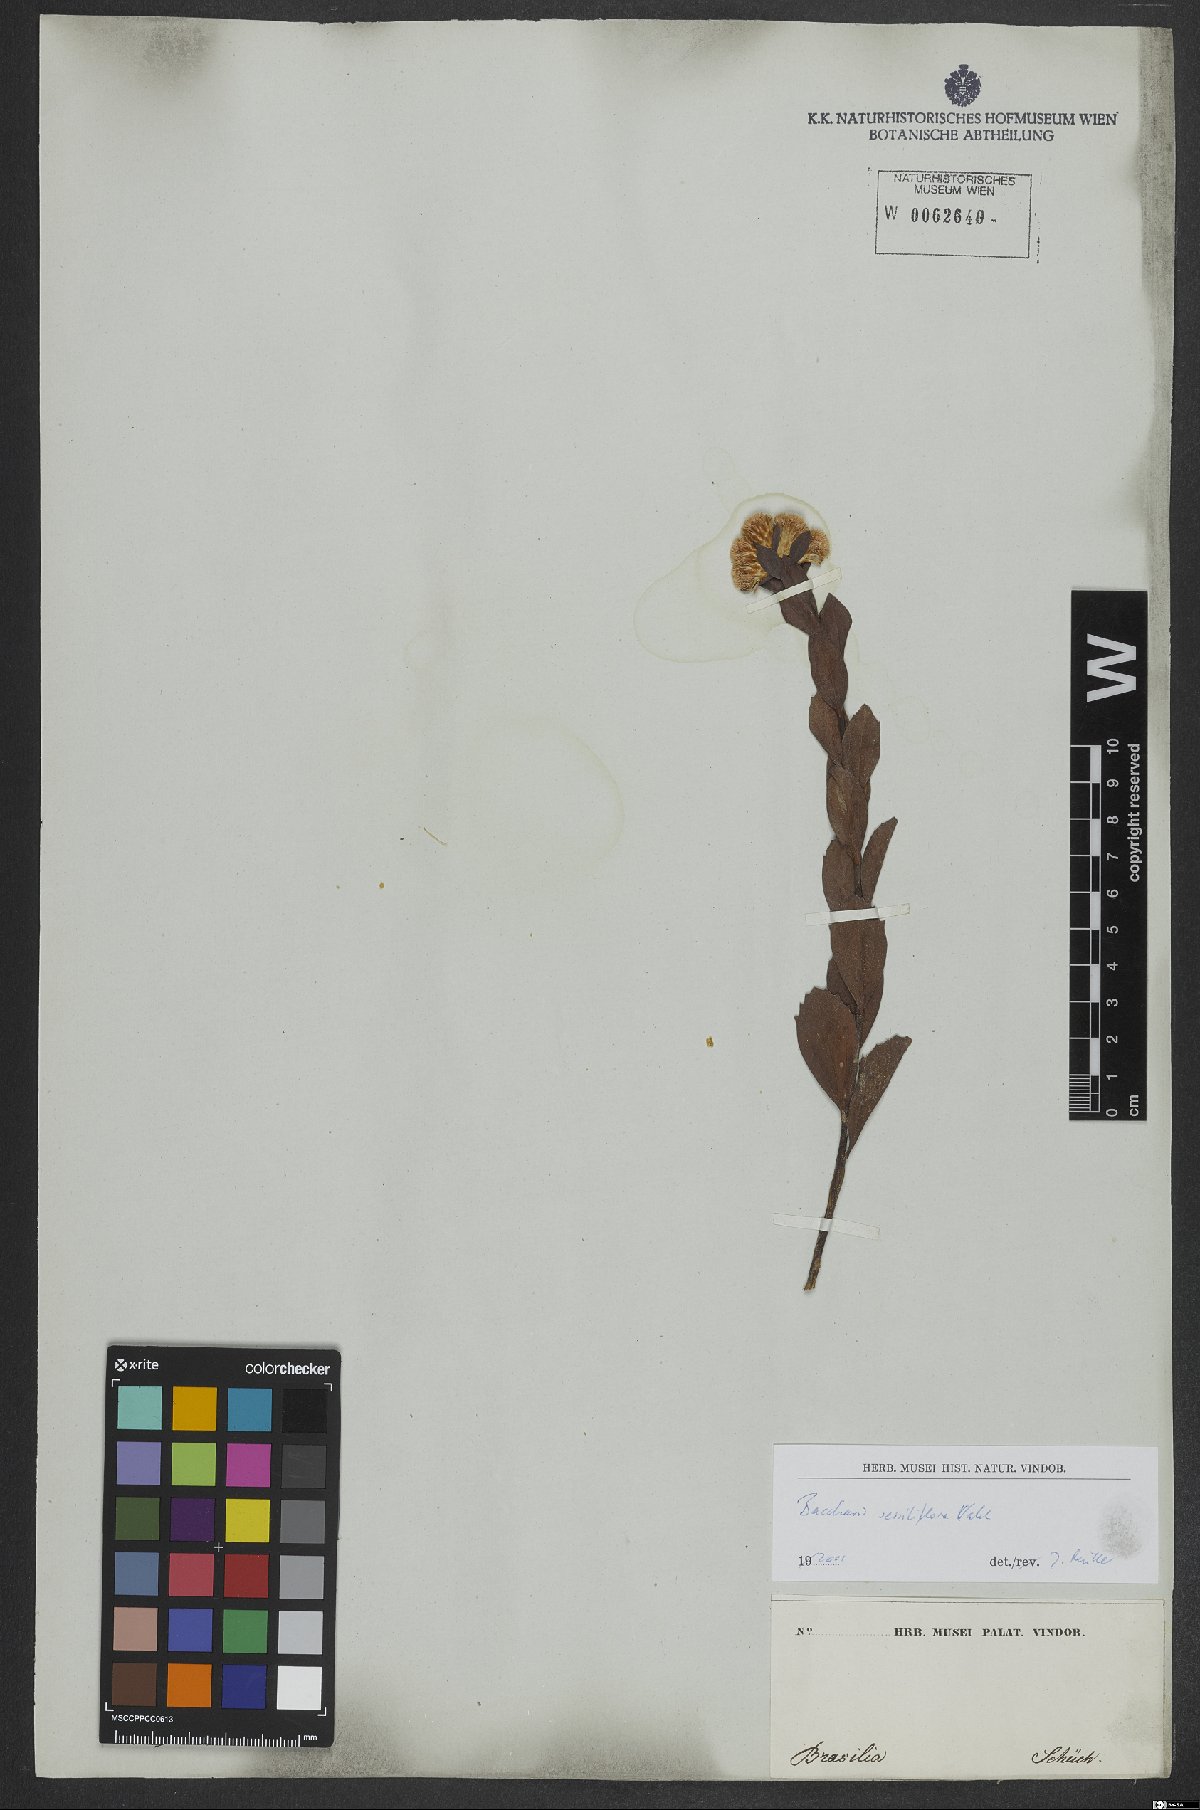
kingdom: Plantae
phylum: Tracheophyta
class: Magnoliopsida
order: Asterales
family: Asteraceae
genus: Baccharis
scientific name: Baccharis sessiliflora
